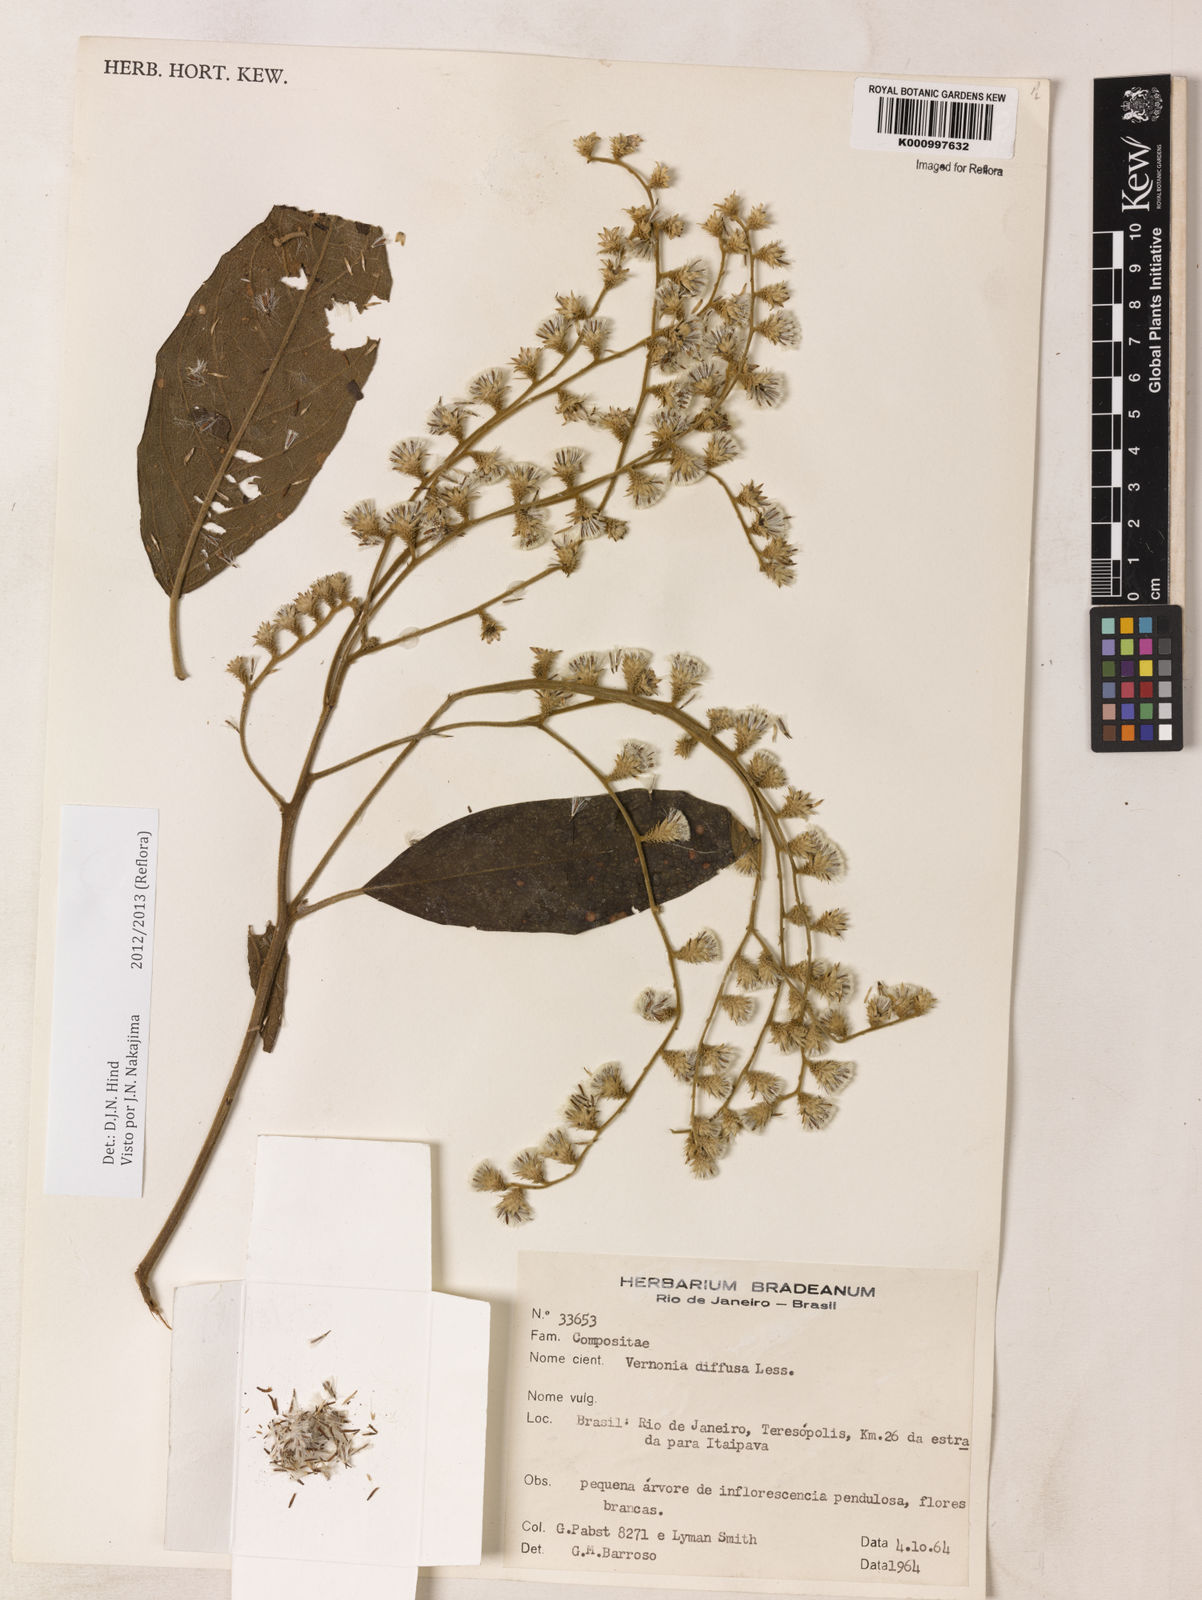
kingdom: Plantae
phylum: Tracheophyta
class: Magnoliopsida
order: Asterales
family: Asteraceae
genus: Vernonanthura
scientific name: Vernonanthura divaricata
